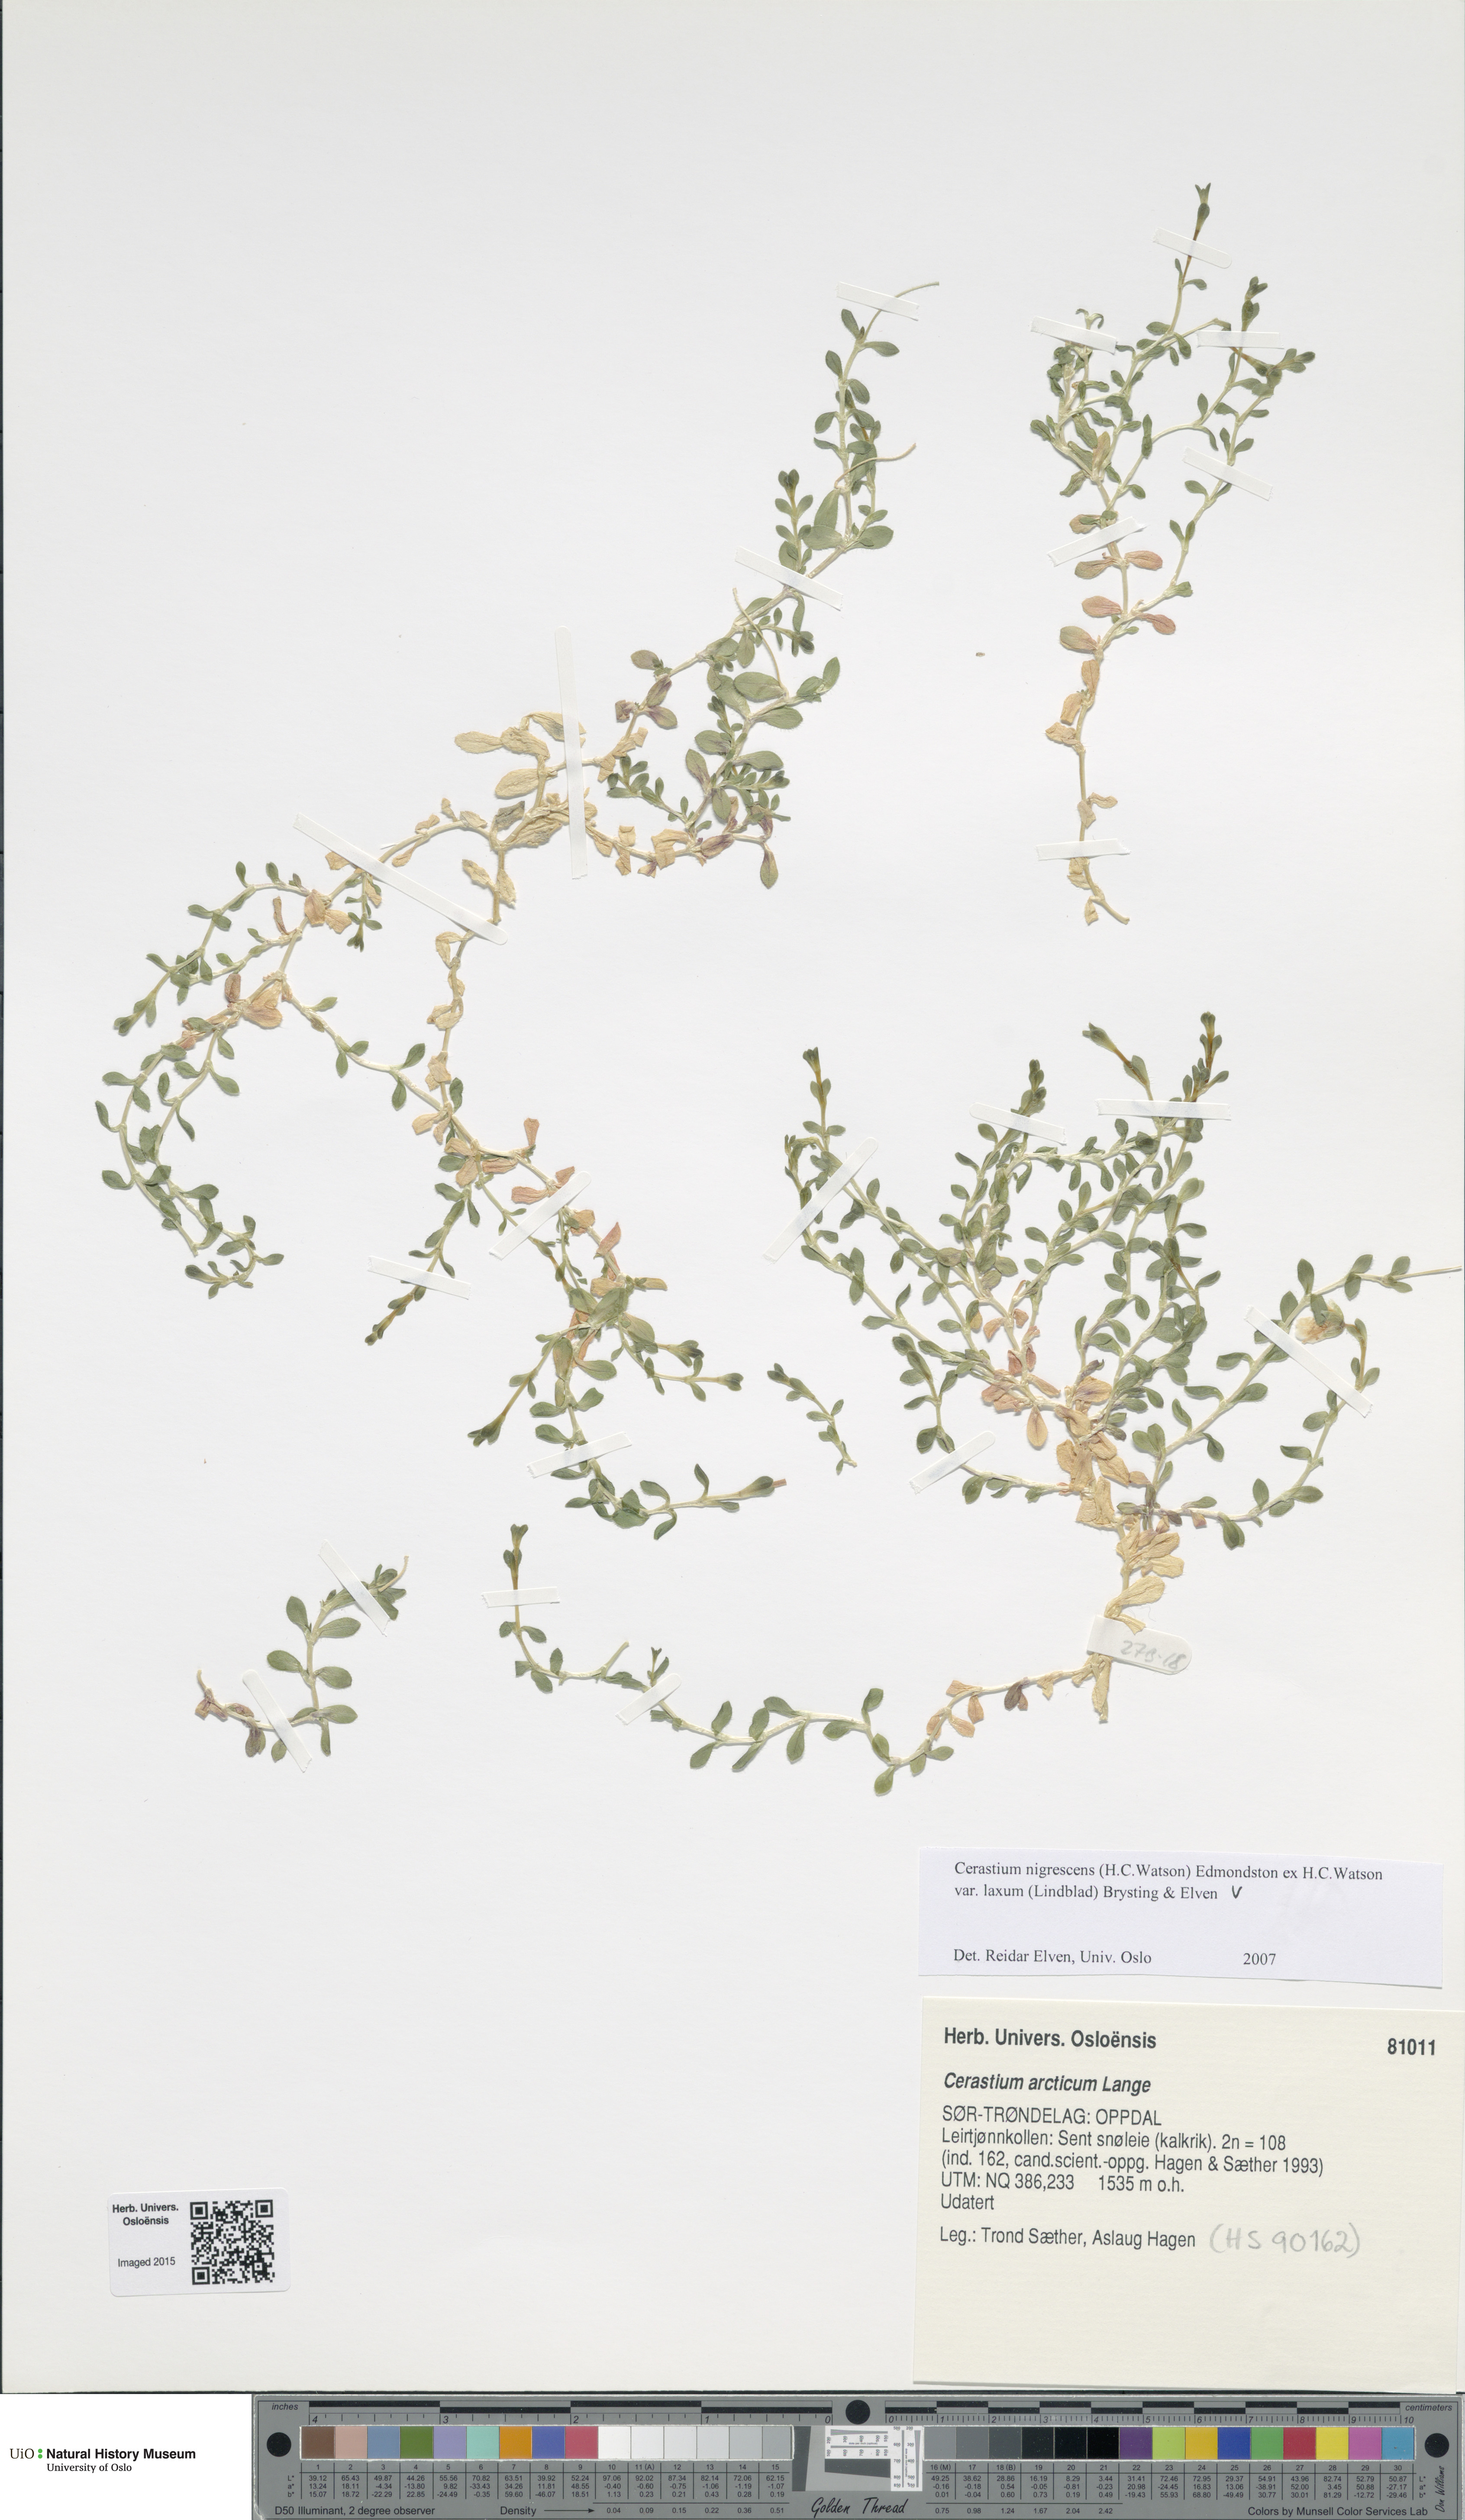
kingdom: Plantae
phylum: Tracheophyta
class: Magnoliopsida
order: Caryophyllales
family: Caryophyllaceae
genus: Cerastium
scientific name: Cerastium nigrescens
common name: Shetland mouse-ear
